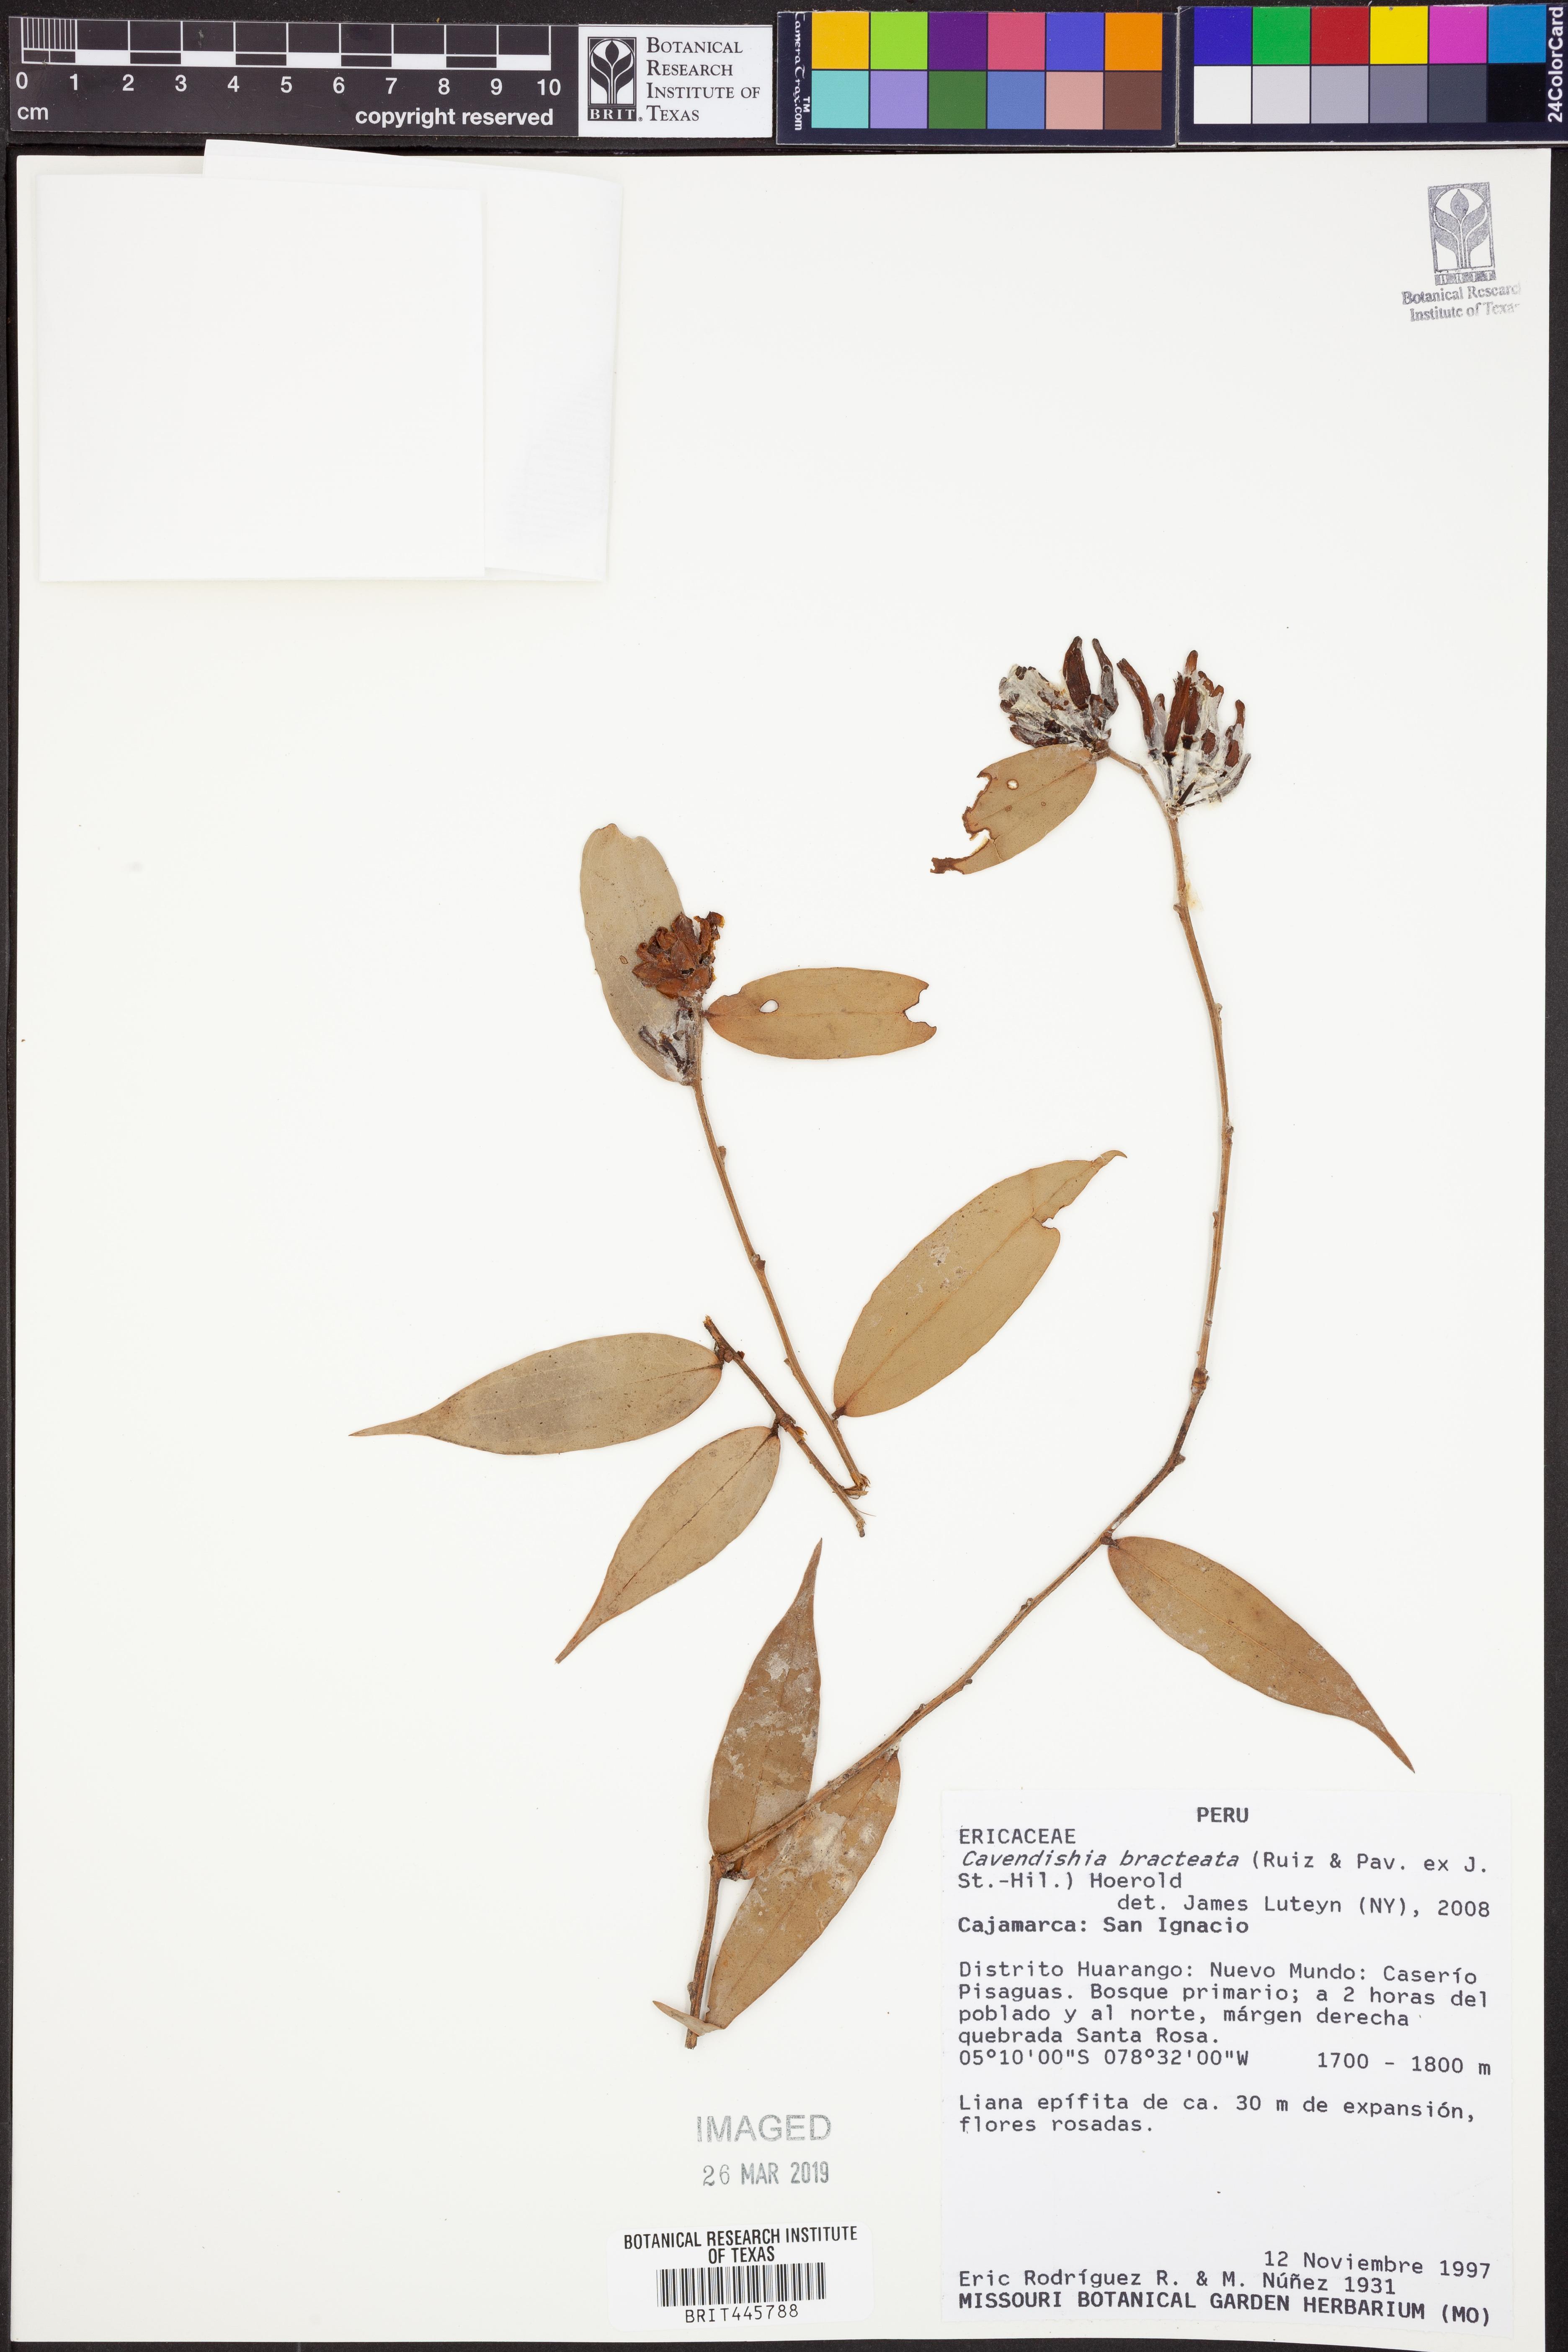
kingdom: Plantae
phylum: Tracheophyta
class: Magnoliopsida
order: Ericales
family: Ericaceae
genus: Cavendishia
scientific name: Cavendishia bracteata
